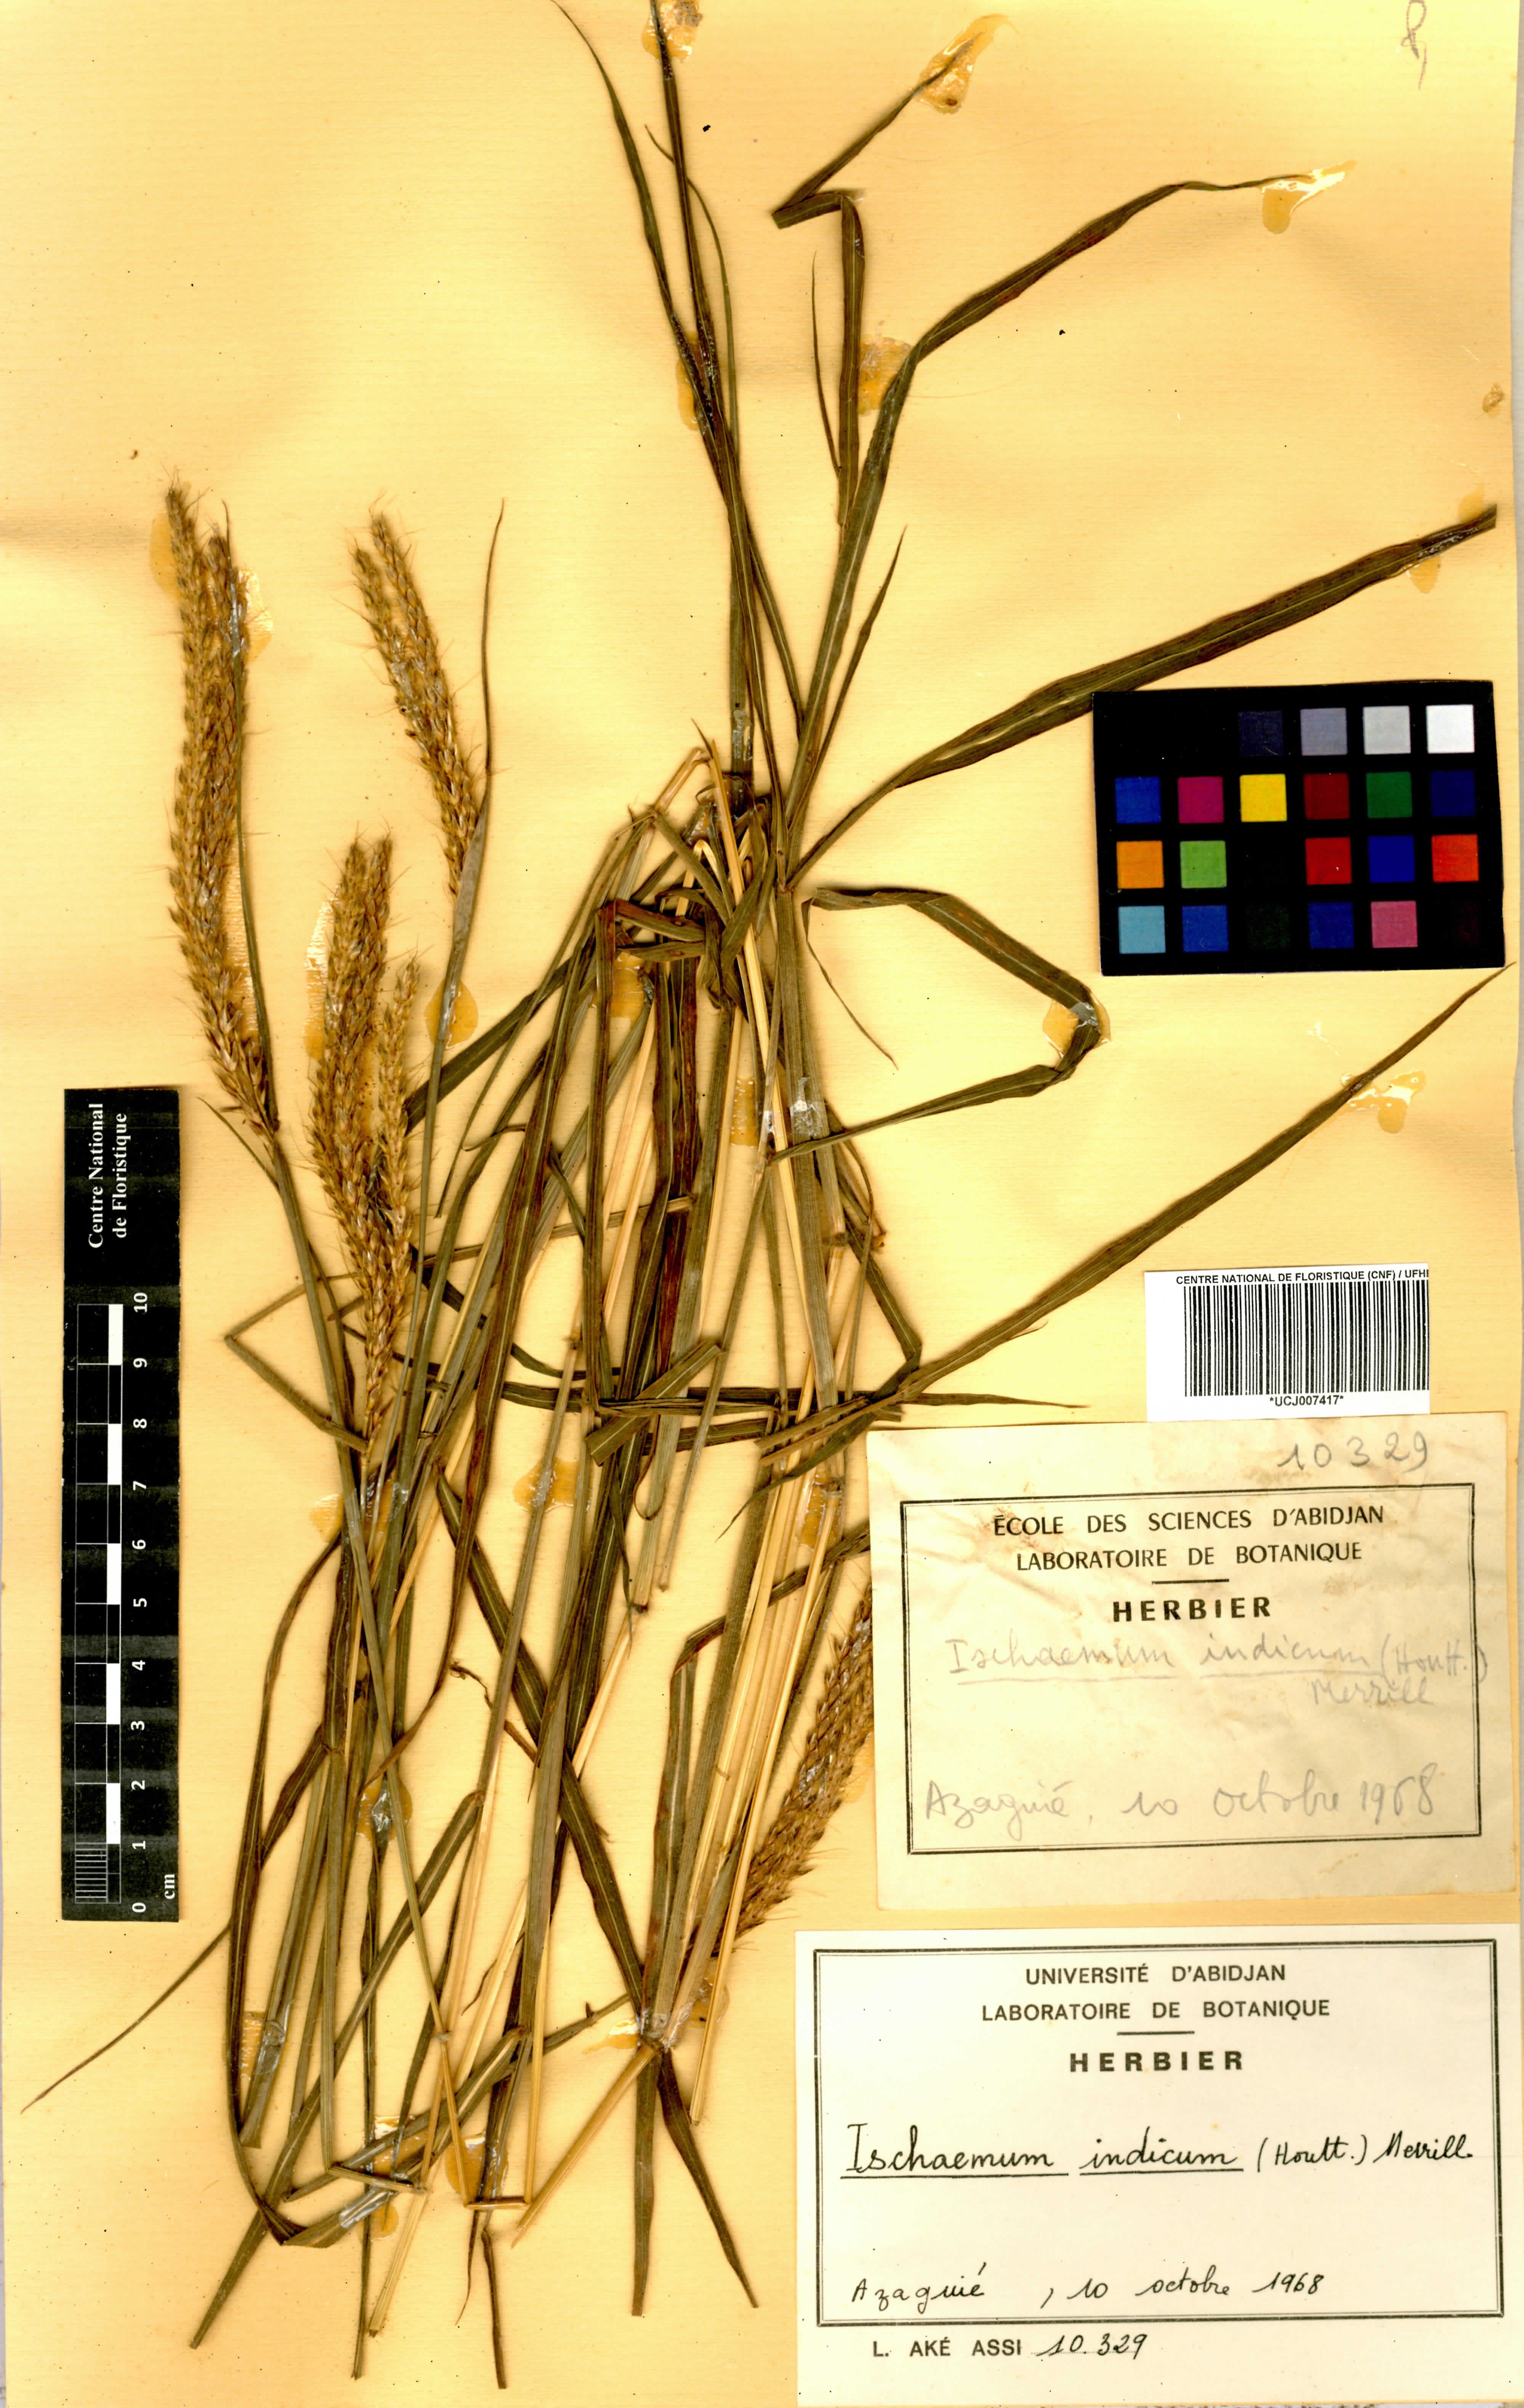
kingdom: Plantae
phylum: Tracheophyta
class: Liliopsida
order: Poales
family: Poaceae
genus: Polytrias
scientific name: Polytrias indica
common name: Indian murainagrass
